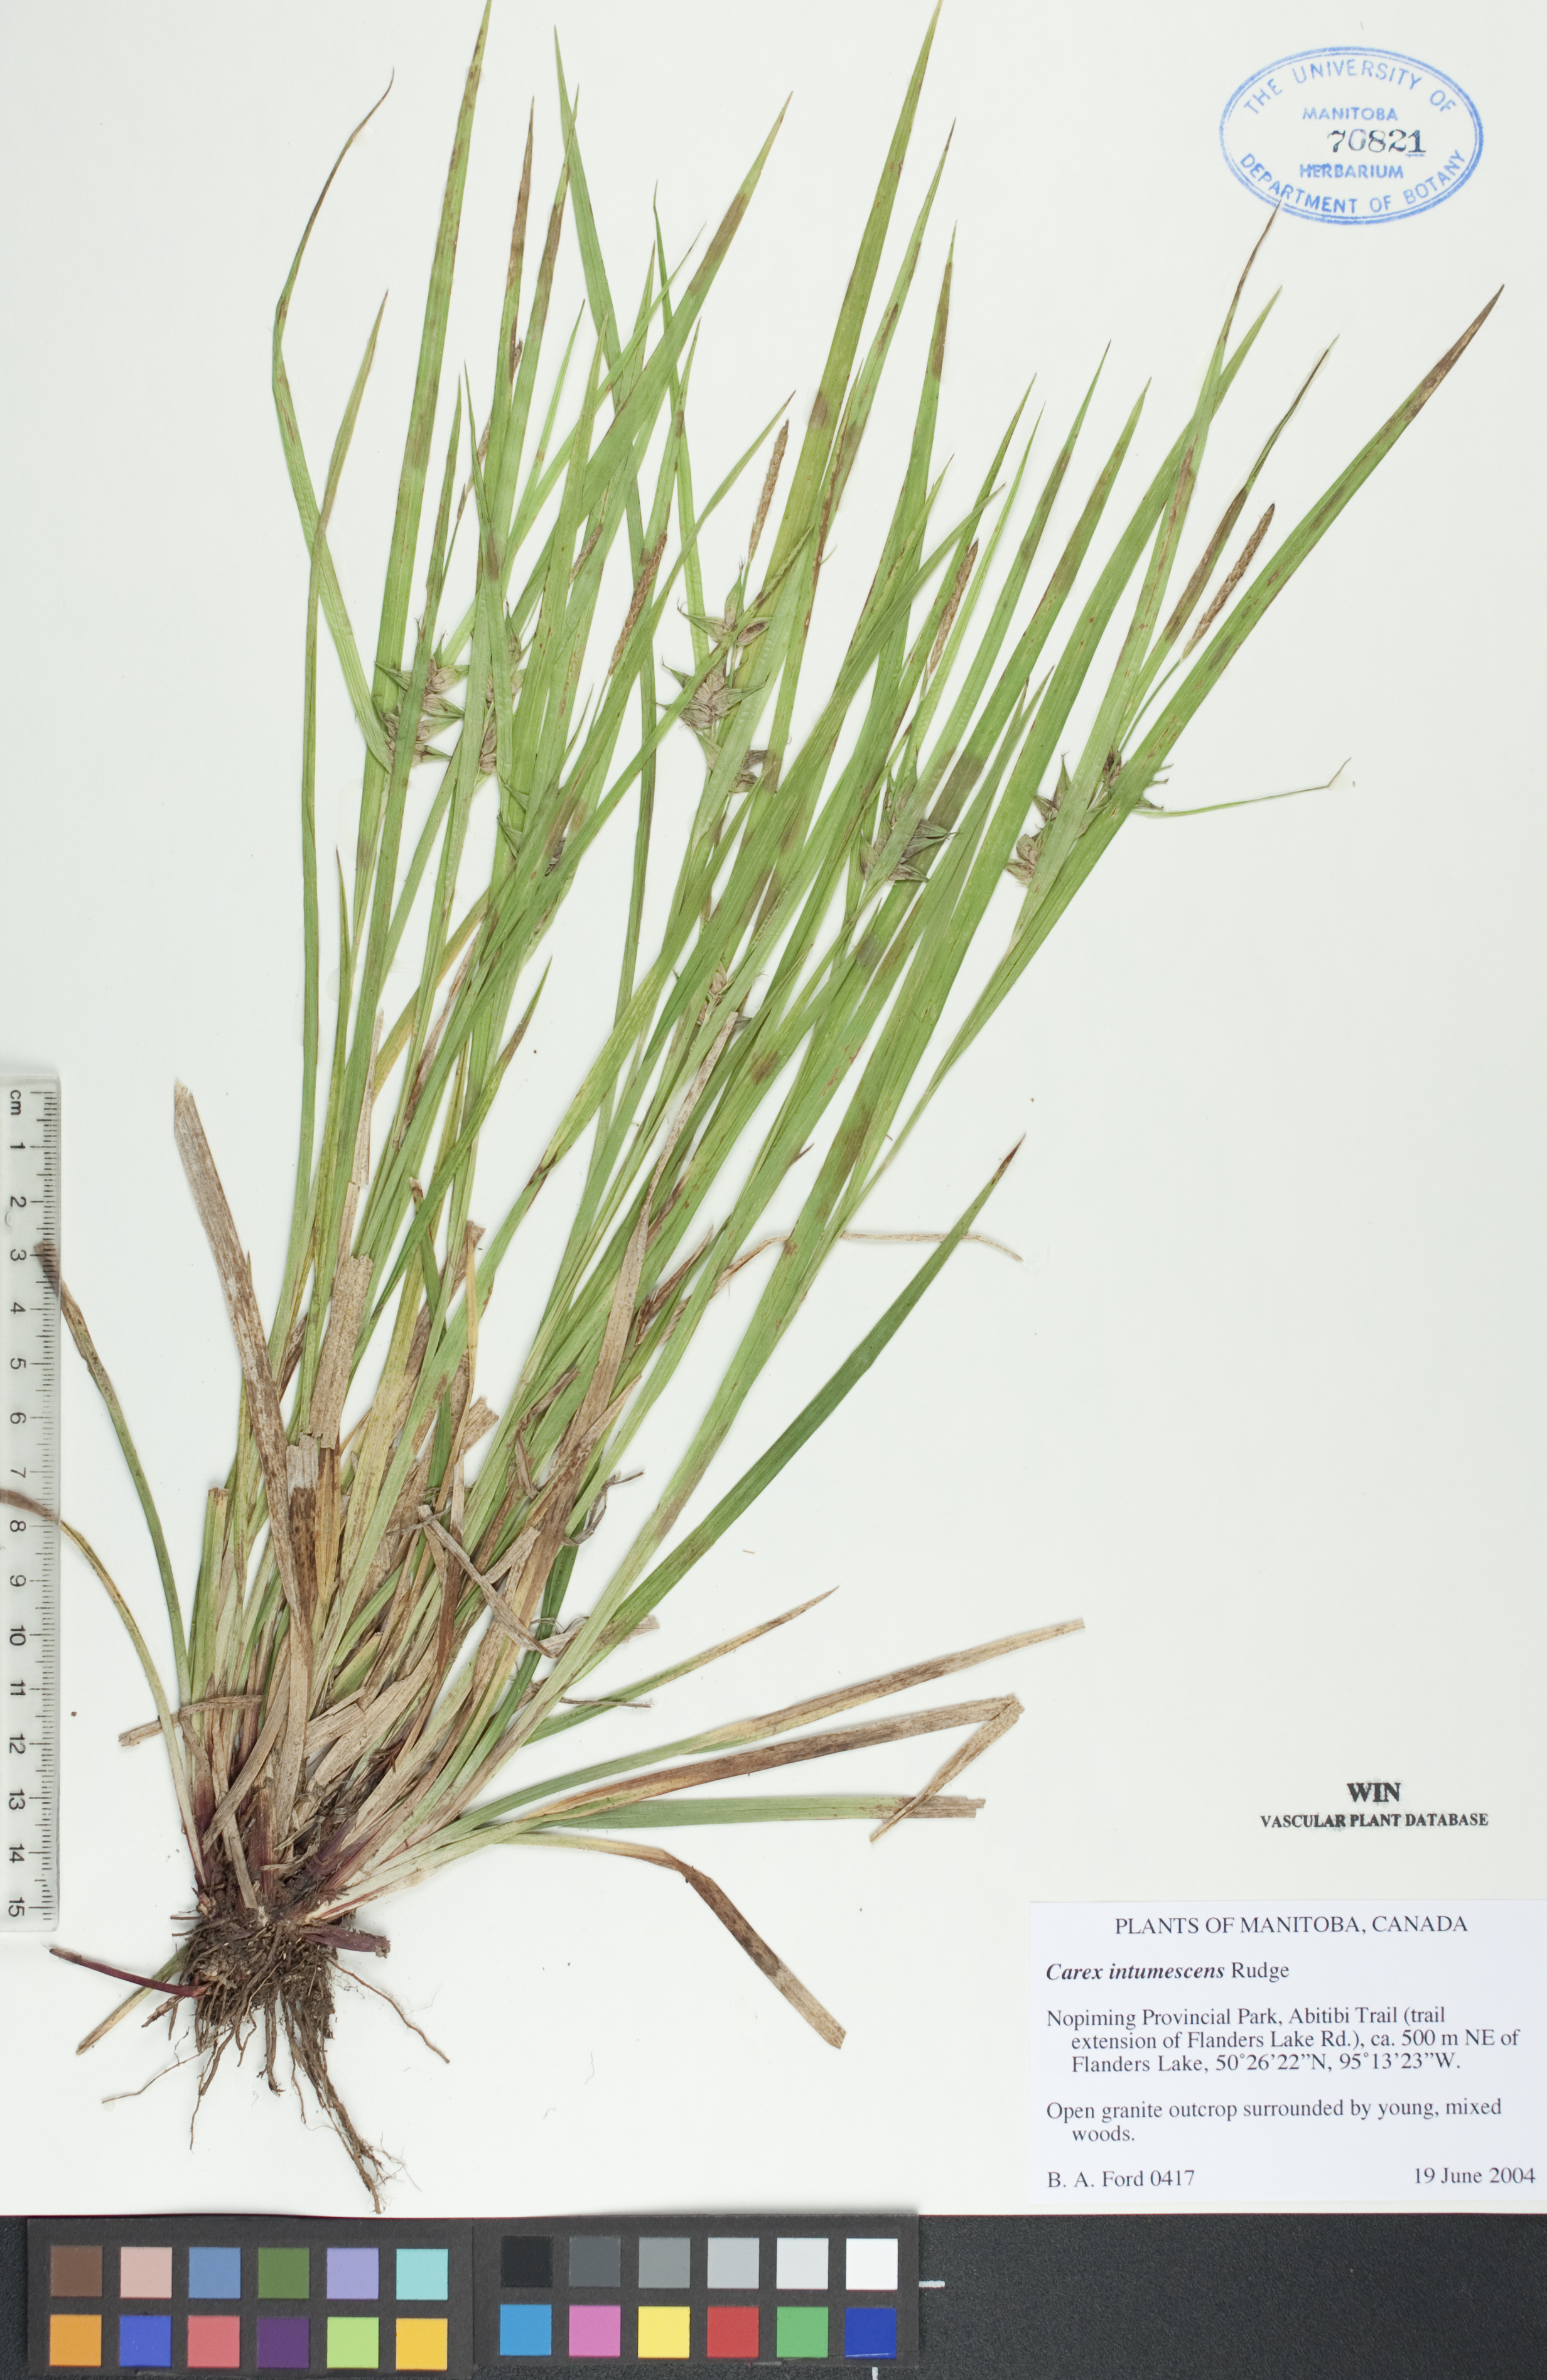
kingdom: Plantae
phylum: Tracheophyta
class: Liliopsida
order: Poales
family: Cyperaceae
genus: Carex
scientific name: Carex intumescens
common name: Greater bladder sedge
